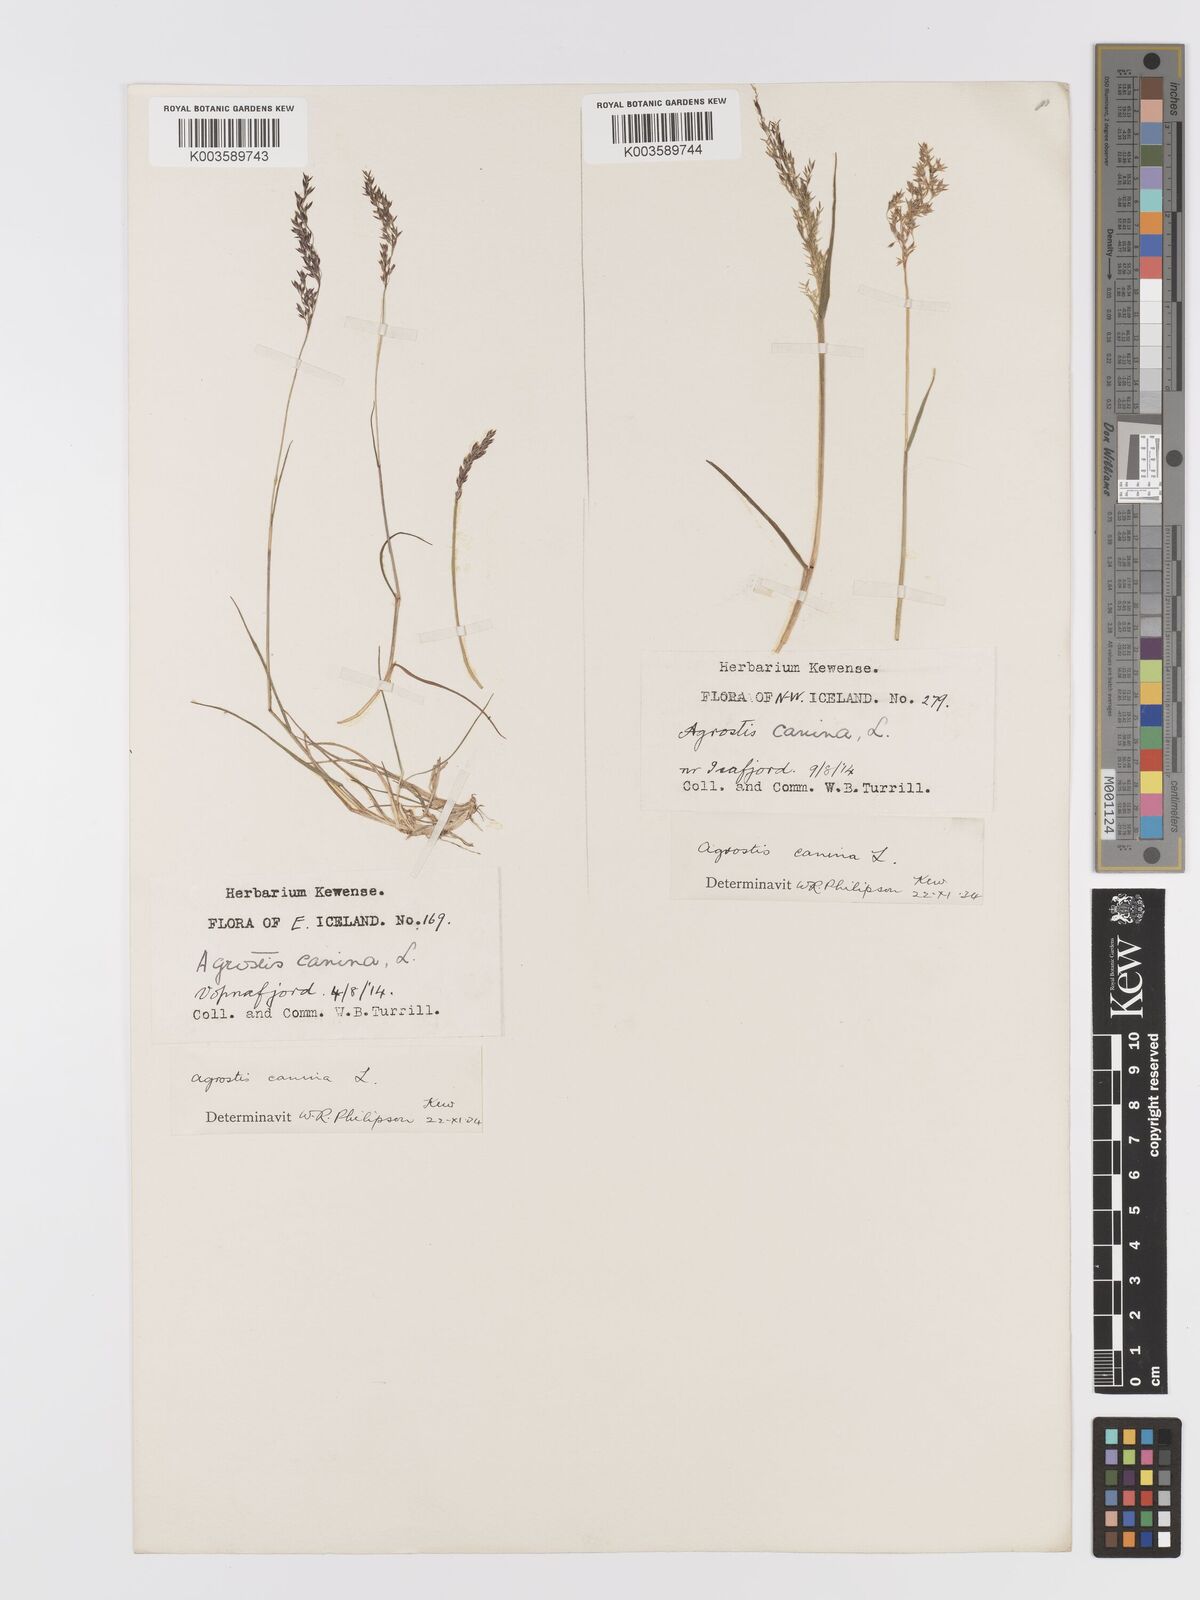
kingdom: Plantae
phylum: Tracheophyta
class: Liliopsida
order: Poales
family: Poaceae
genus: Agrostis
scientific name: Agrostis
